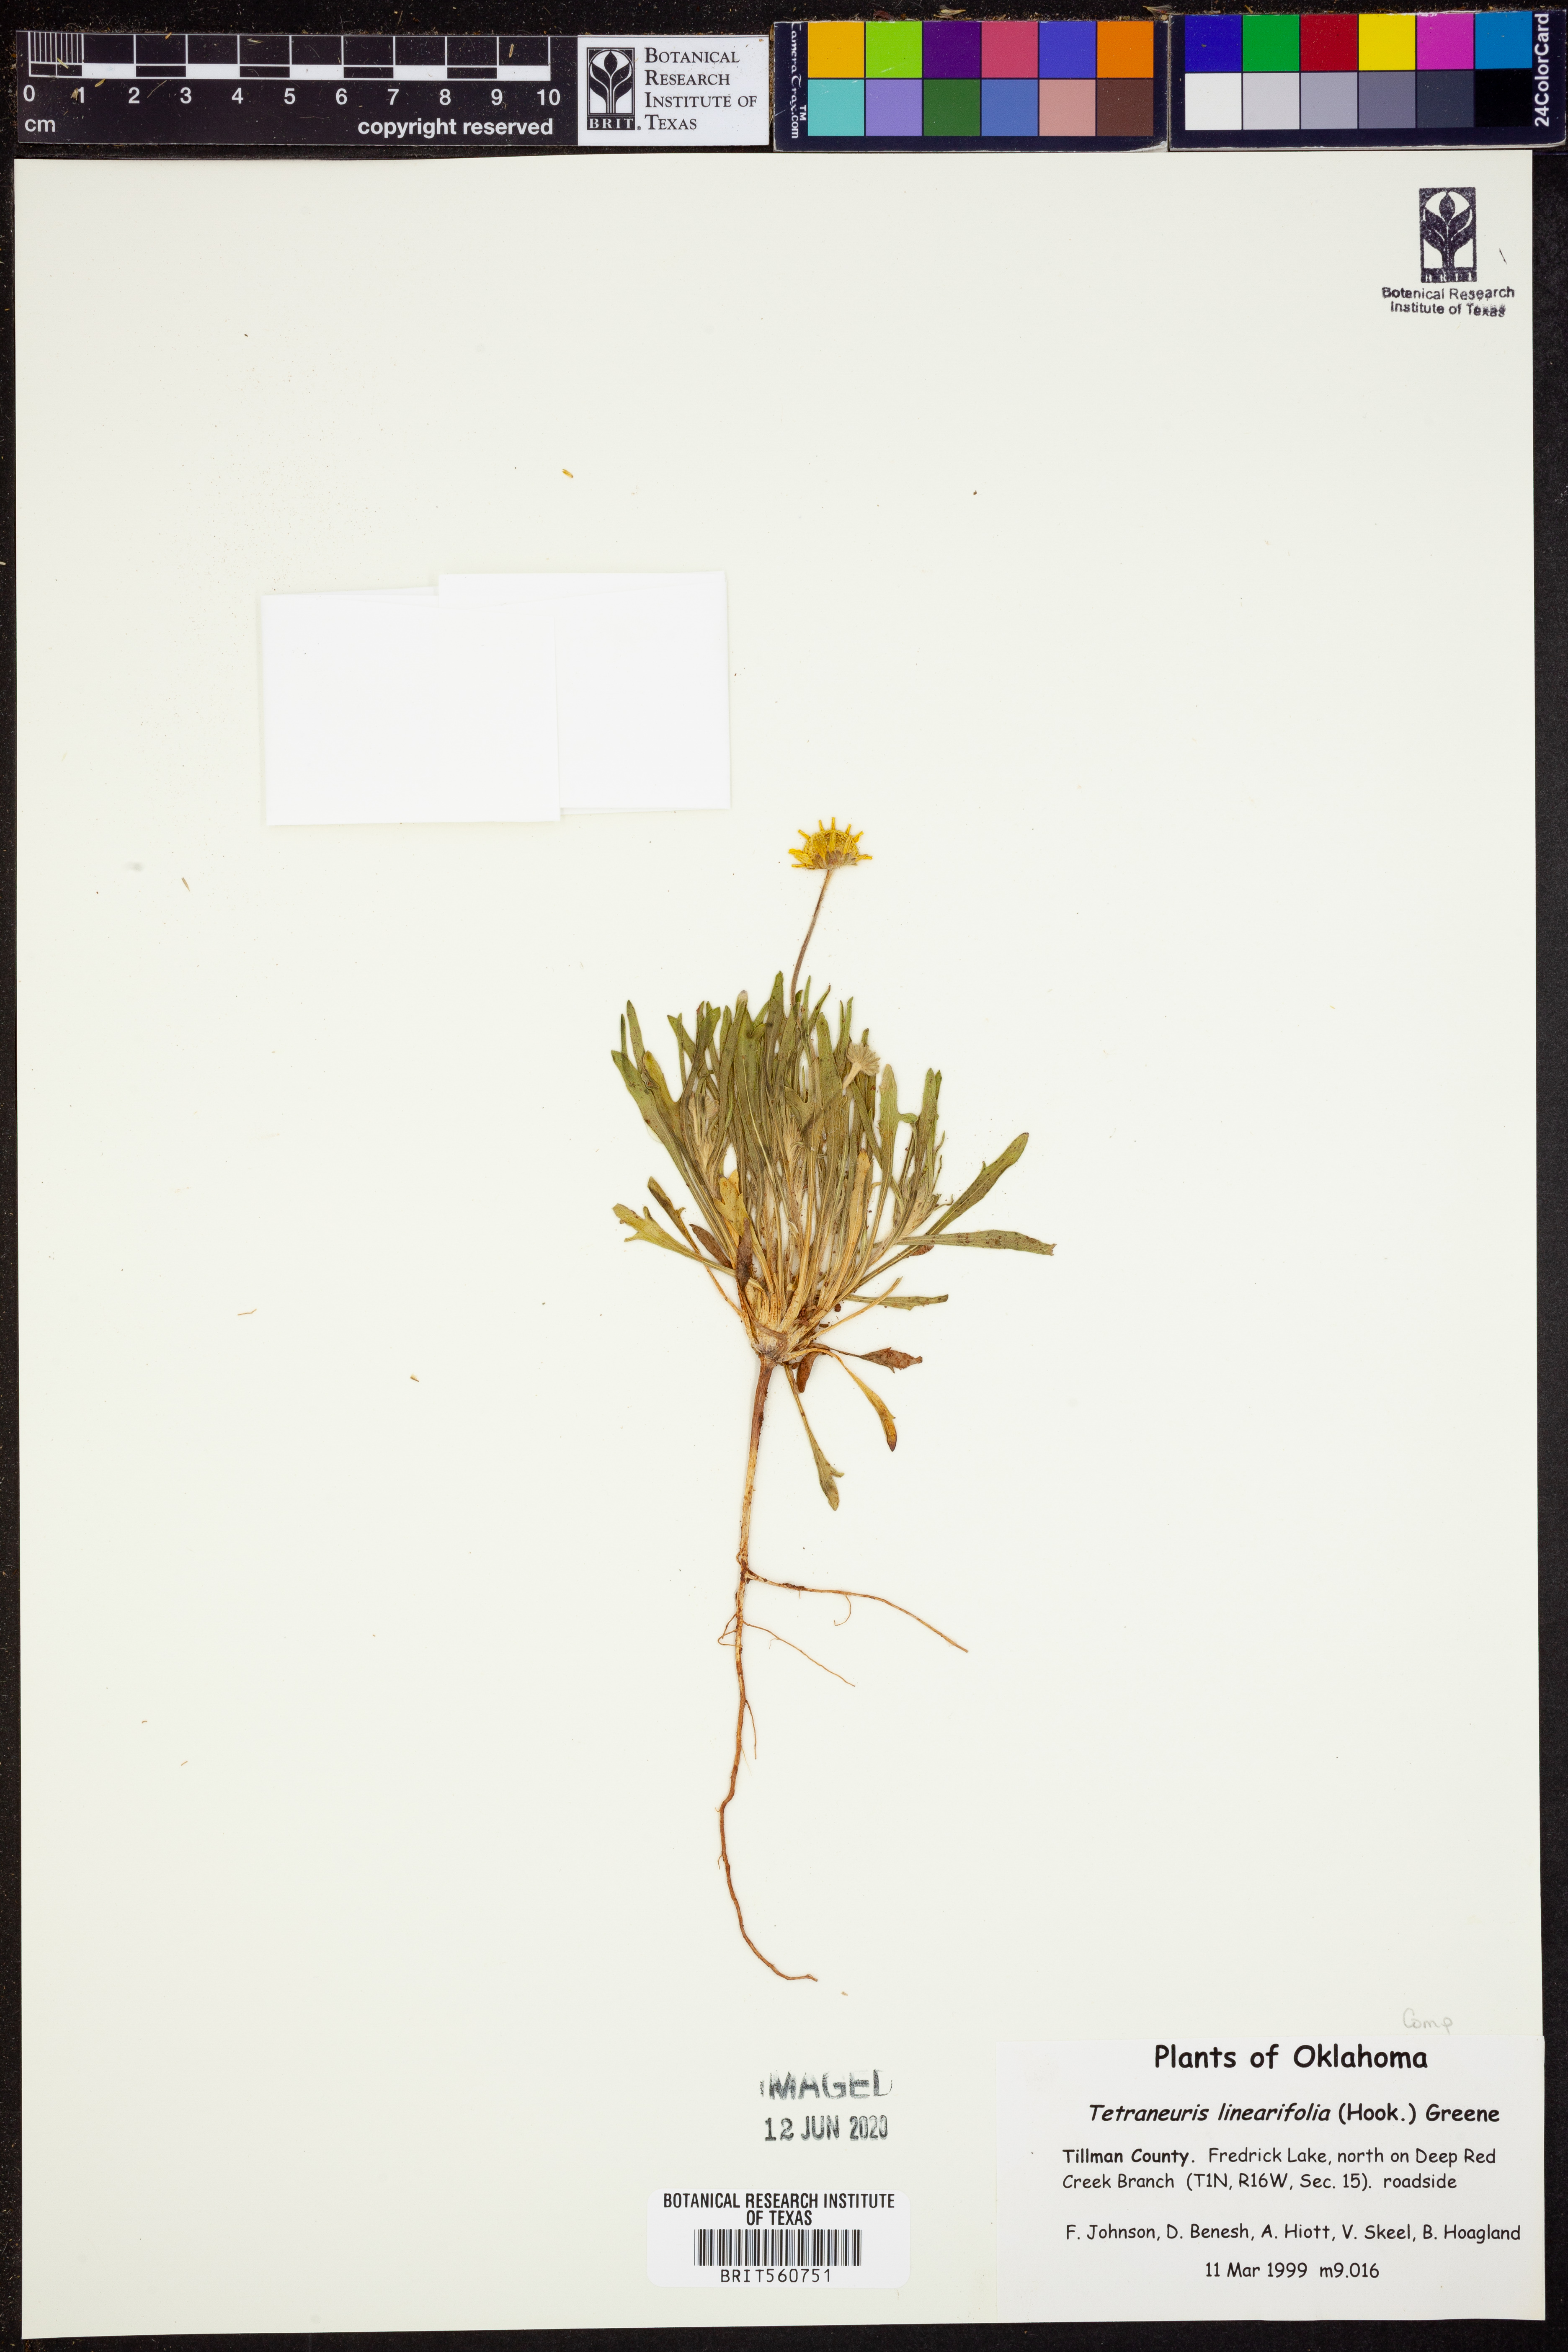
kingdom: Plantae
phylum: Tracheophyta
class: Magnoliopsida
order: Asterales
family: Asteraceae
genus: Tetraneuris
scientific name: Tetraneuris linearifolia
